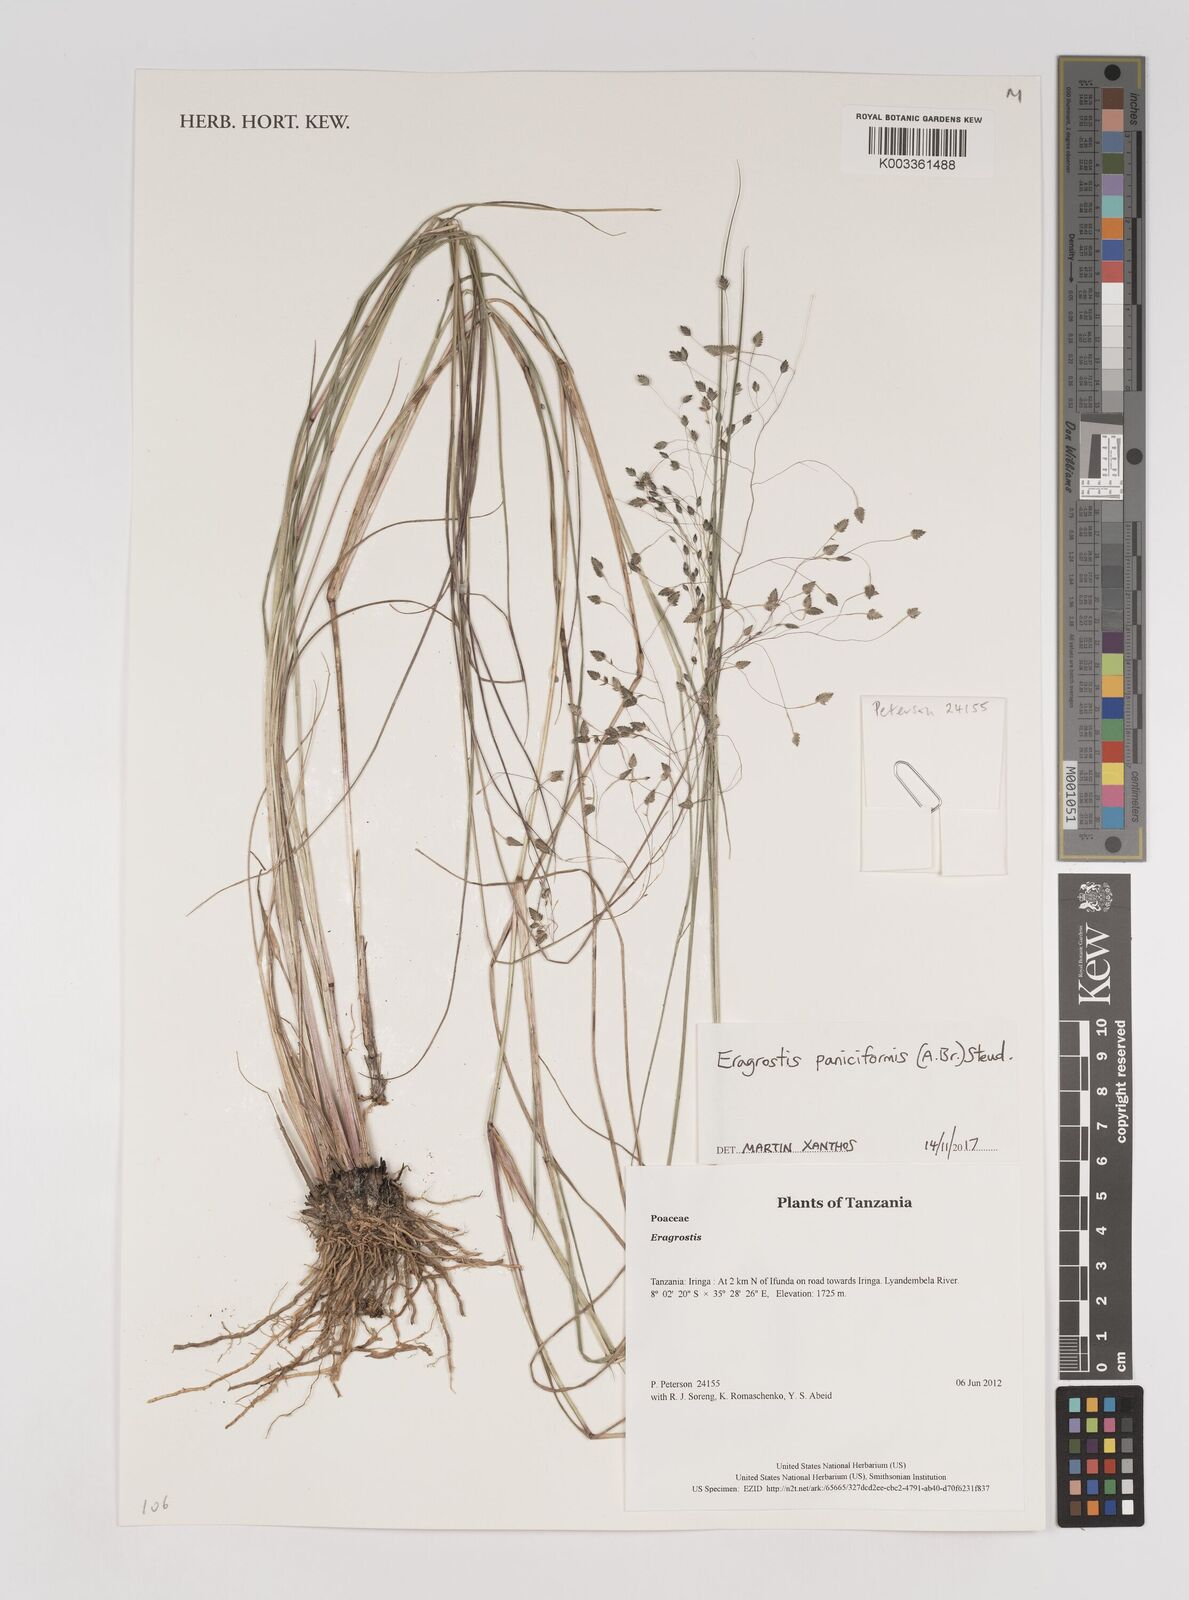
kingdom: Plantae
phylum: Tracheophyta
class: Liliopsida
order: Poales
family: Poaceae
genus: Eragrostis
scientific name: Eragrostis paniciformis
